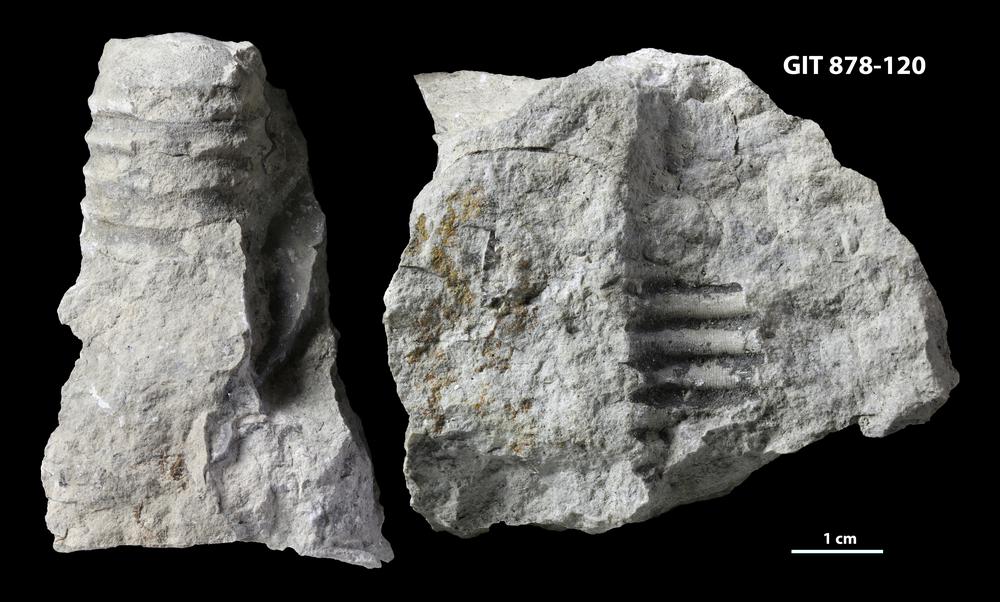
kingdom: Animalia
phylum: Mollusca
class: Cephalopoda
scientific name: Cephalopoda
